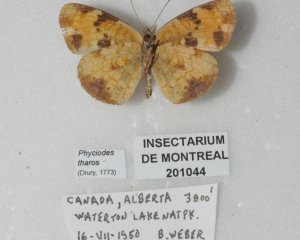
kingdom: Animalia
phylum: Arthropoda
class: Insecta
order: Lepidoptera
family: Nymphalidae
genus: Phyciodes
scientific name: Phyciodes tharos
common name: Pearl Crescent
